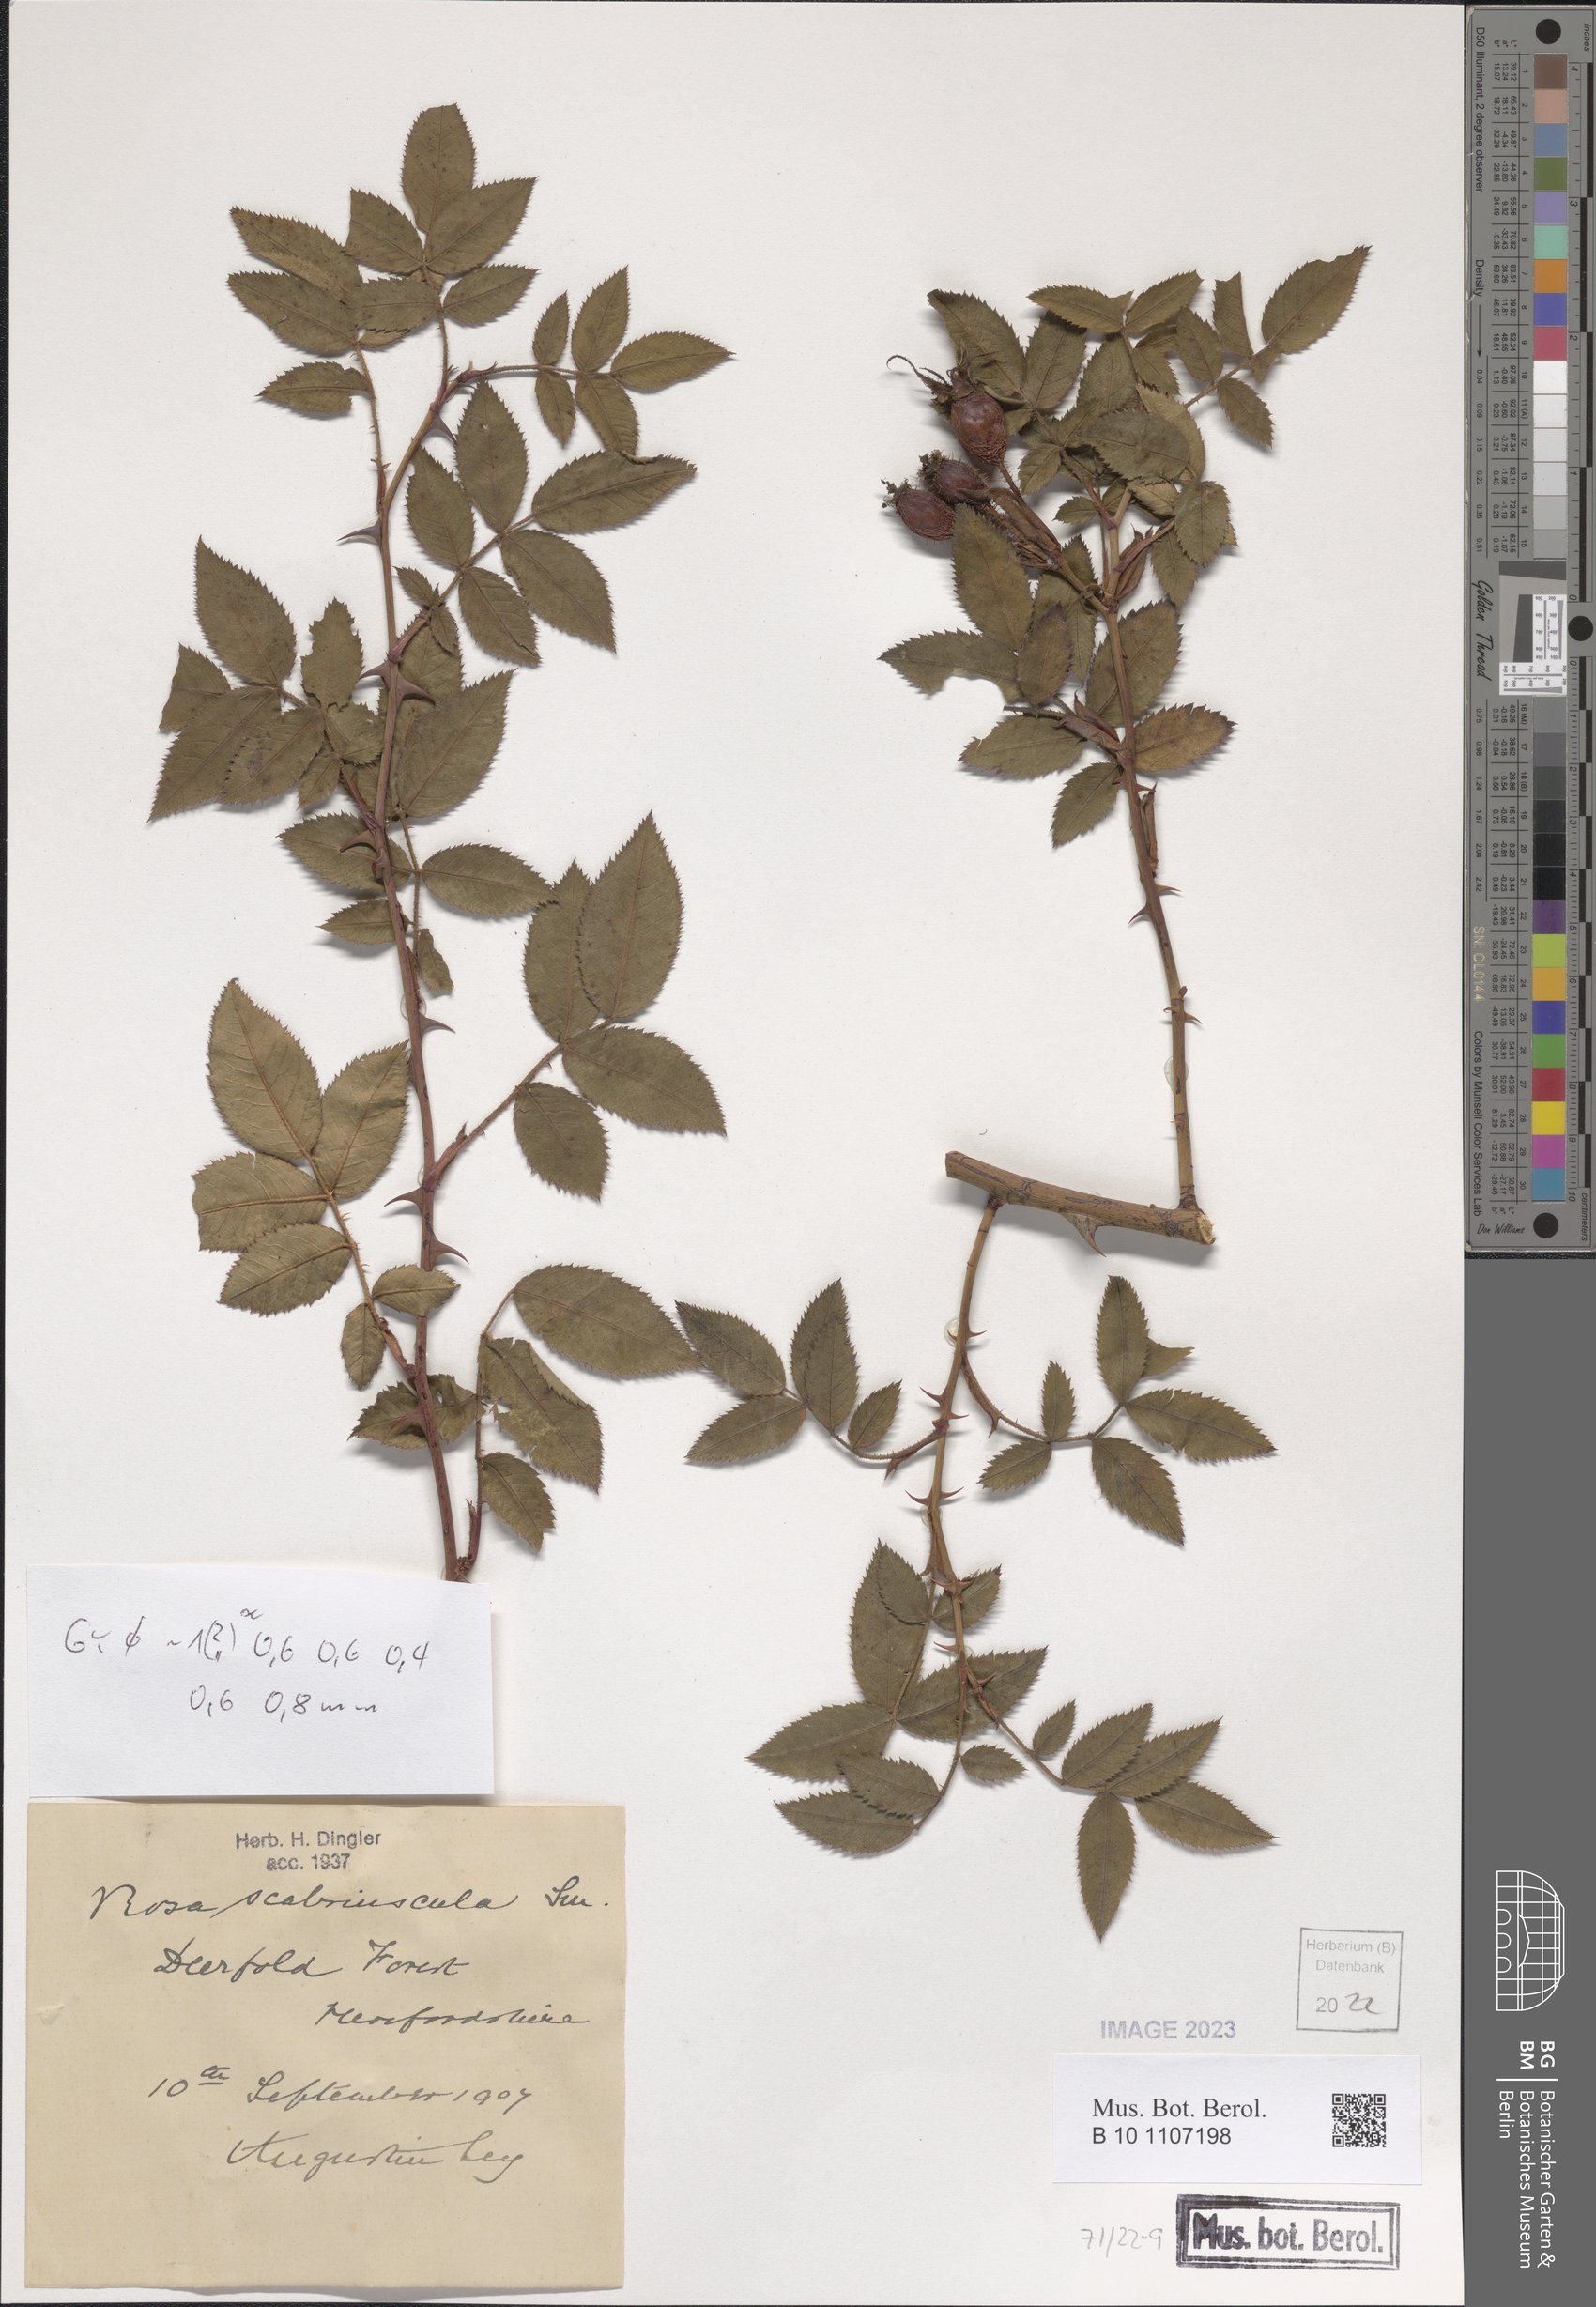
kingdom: Plantae
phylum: Tracheophyta
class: Magnoliopsida
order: Rosales
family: Rosaceae
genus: Rosa
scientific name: Rosa scabriuscula
